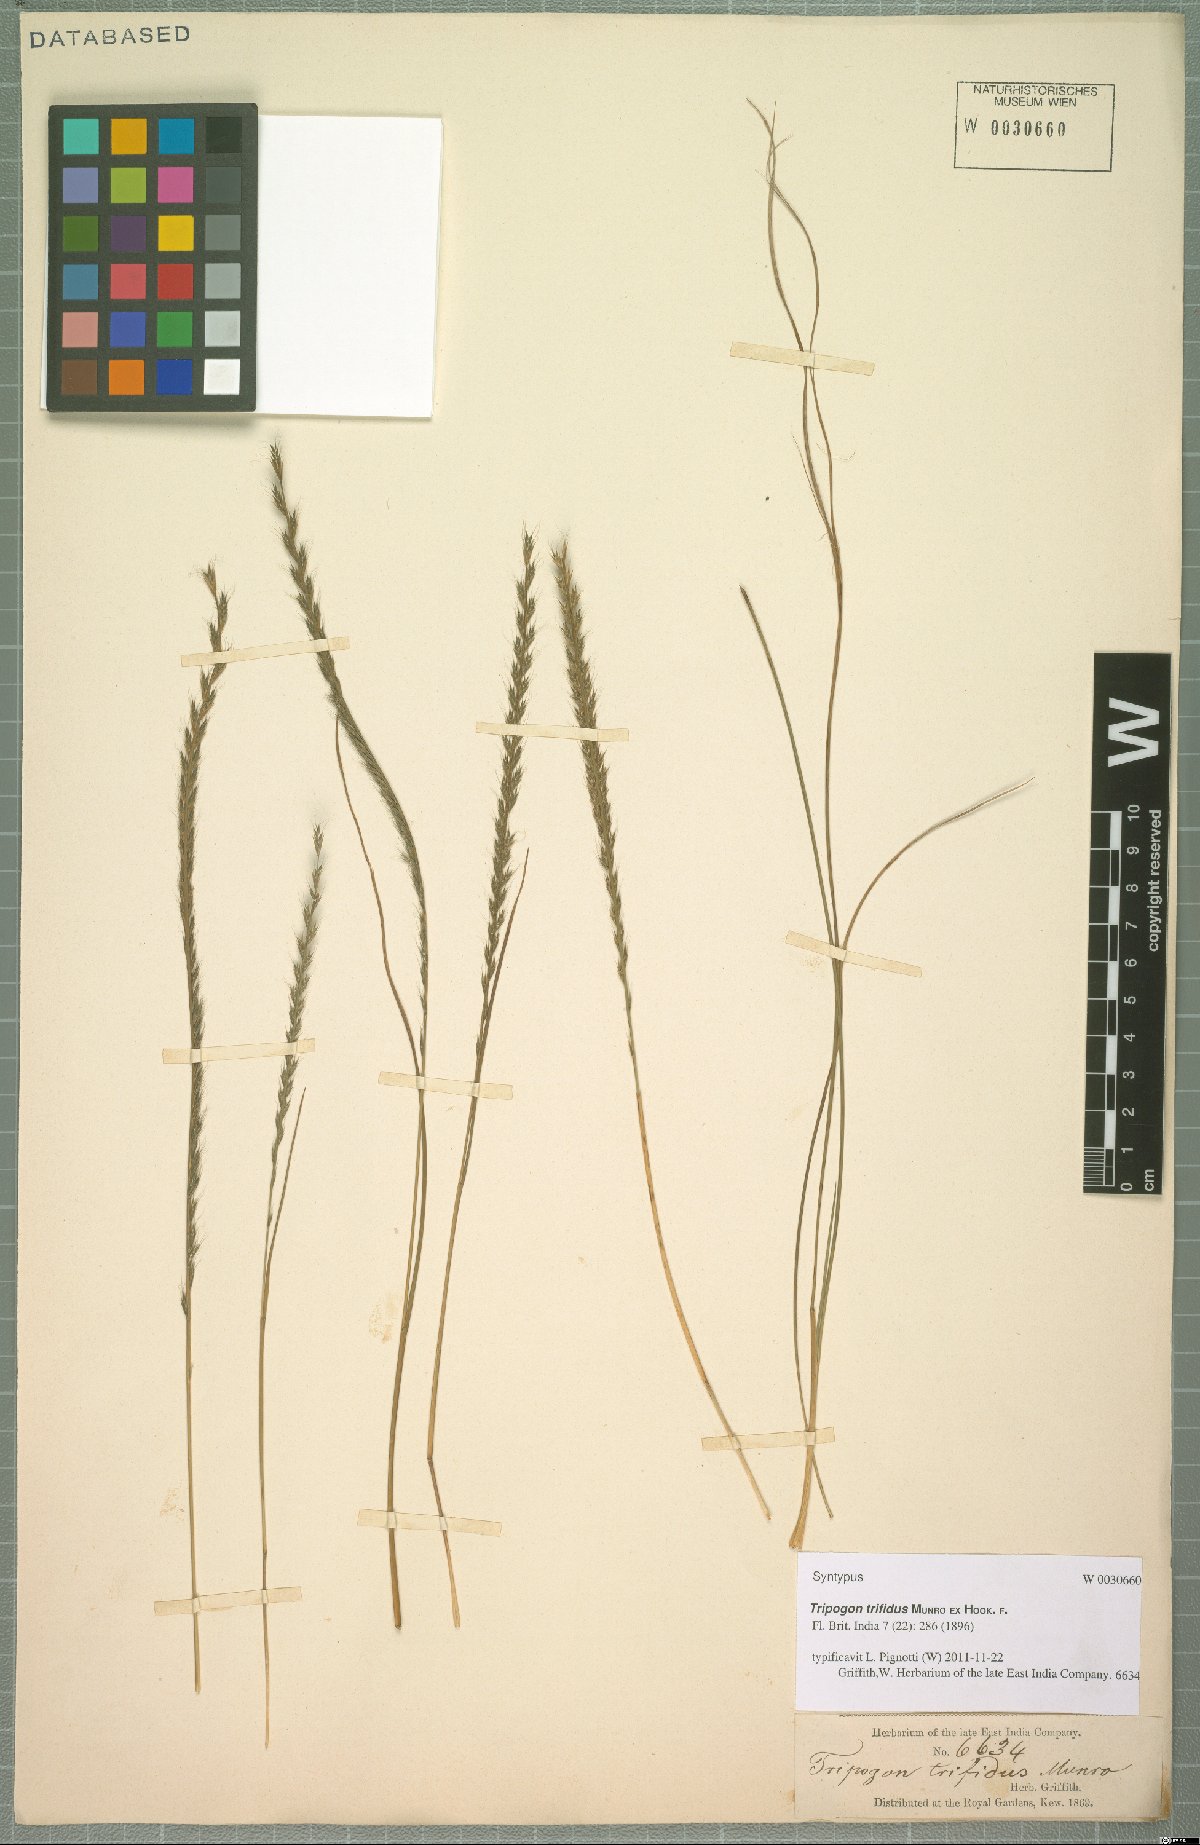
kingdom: Plantae
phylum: Tracheophyta
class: Liliopsida
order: Poales
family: Poaceae
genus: Tripogon
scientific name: Tripogon trifidus
